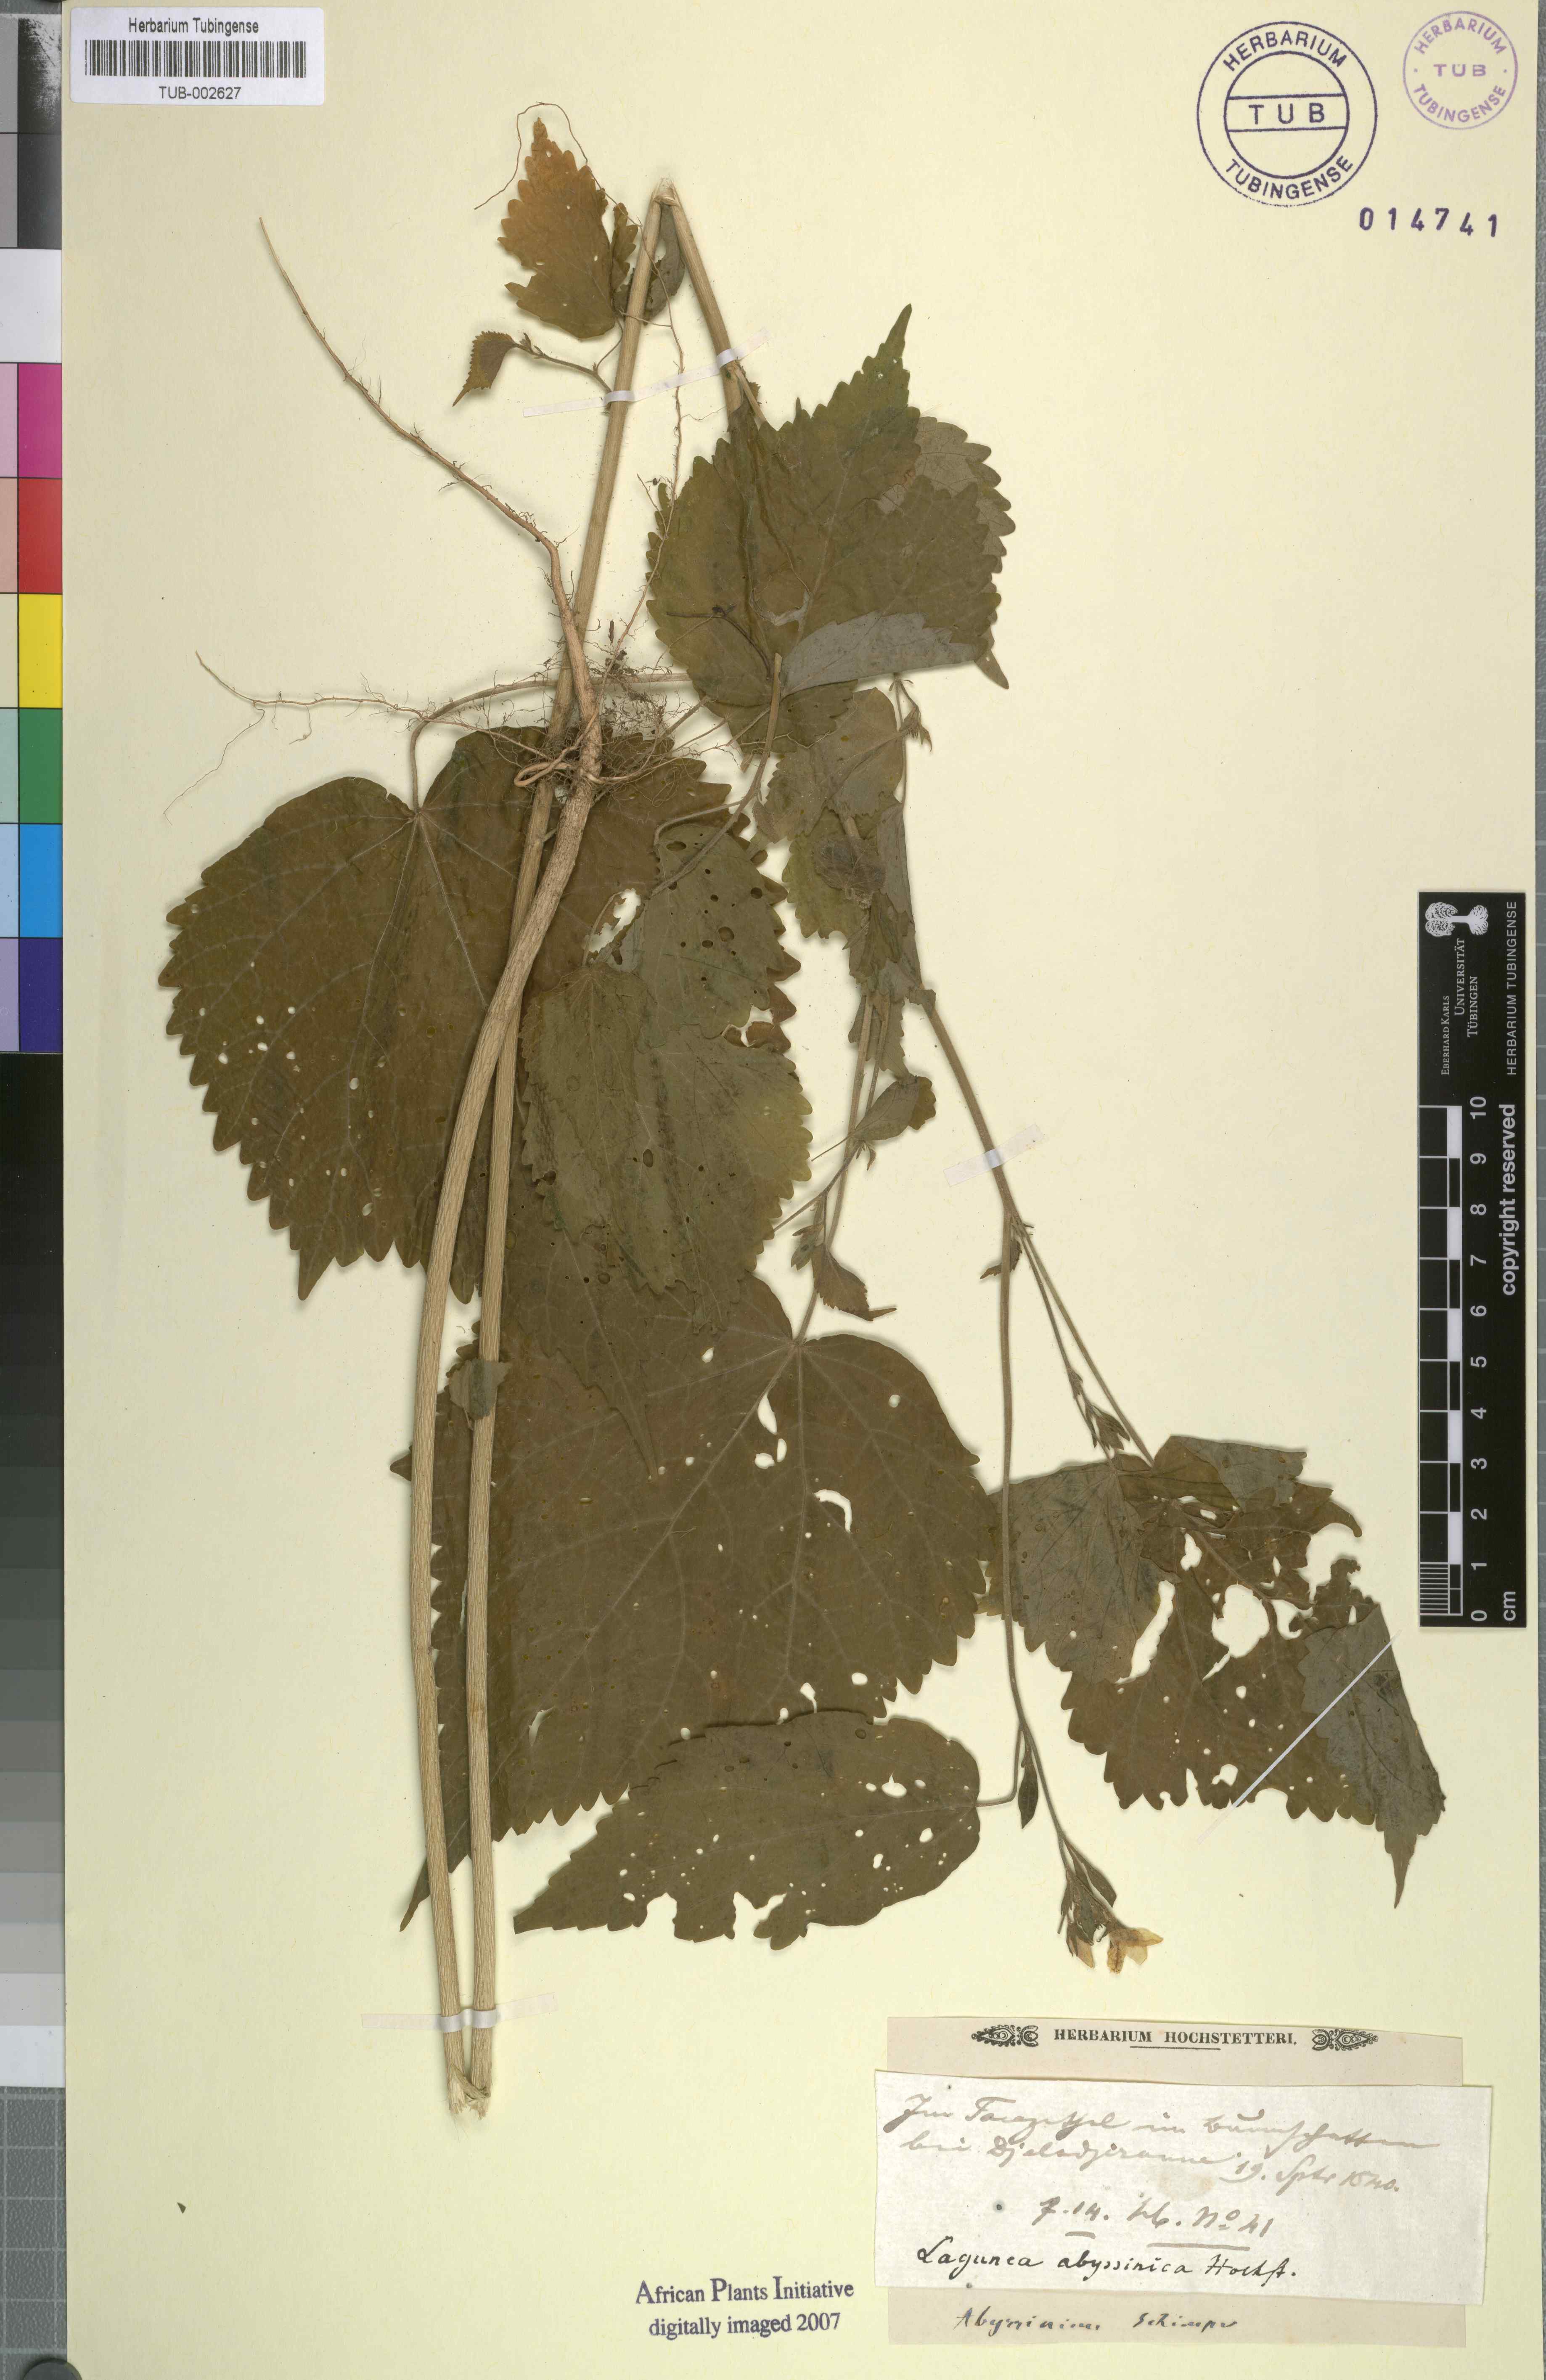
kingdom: Plantae
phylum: Tracheophyta
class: Magnoliopsida
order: Malvales
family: Malvaceae
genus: Hibiscus
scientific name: Hibiscus lobatus
